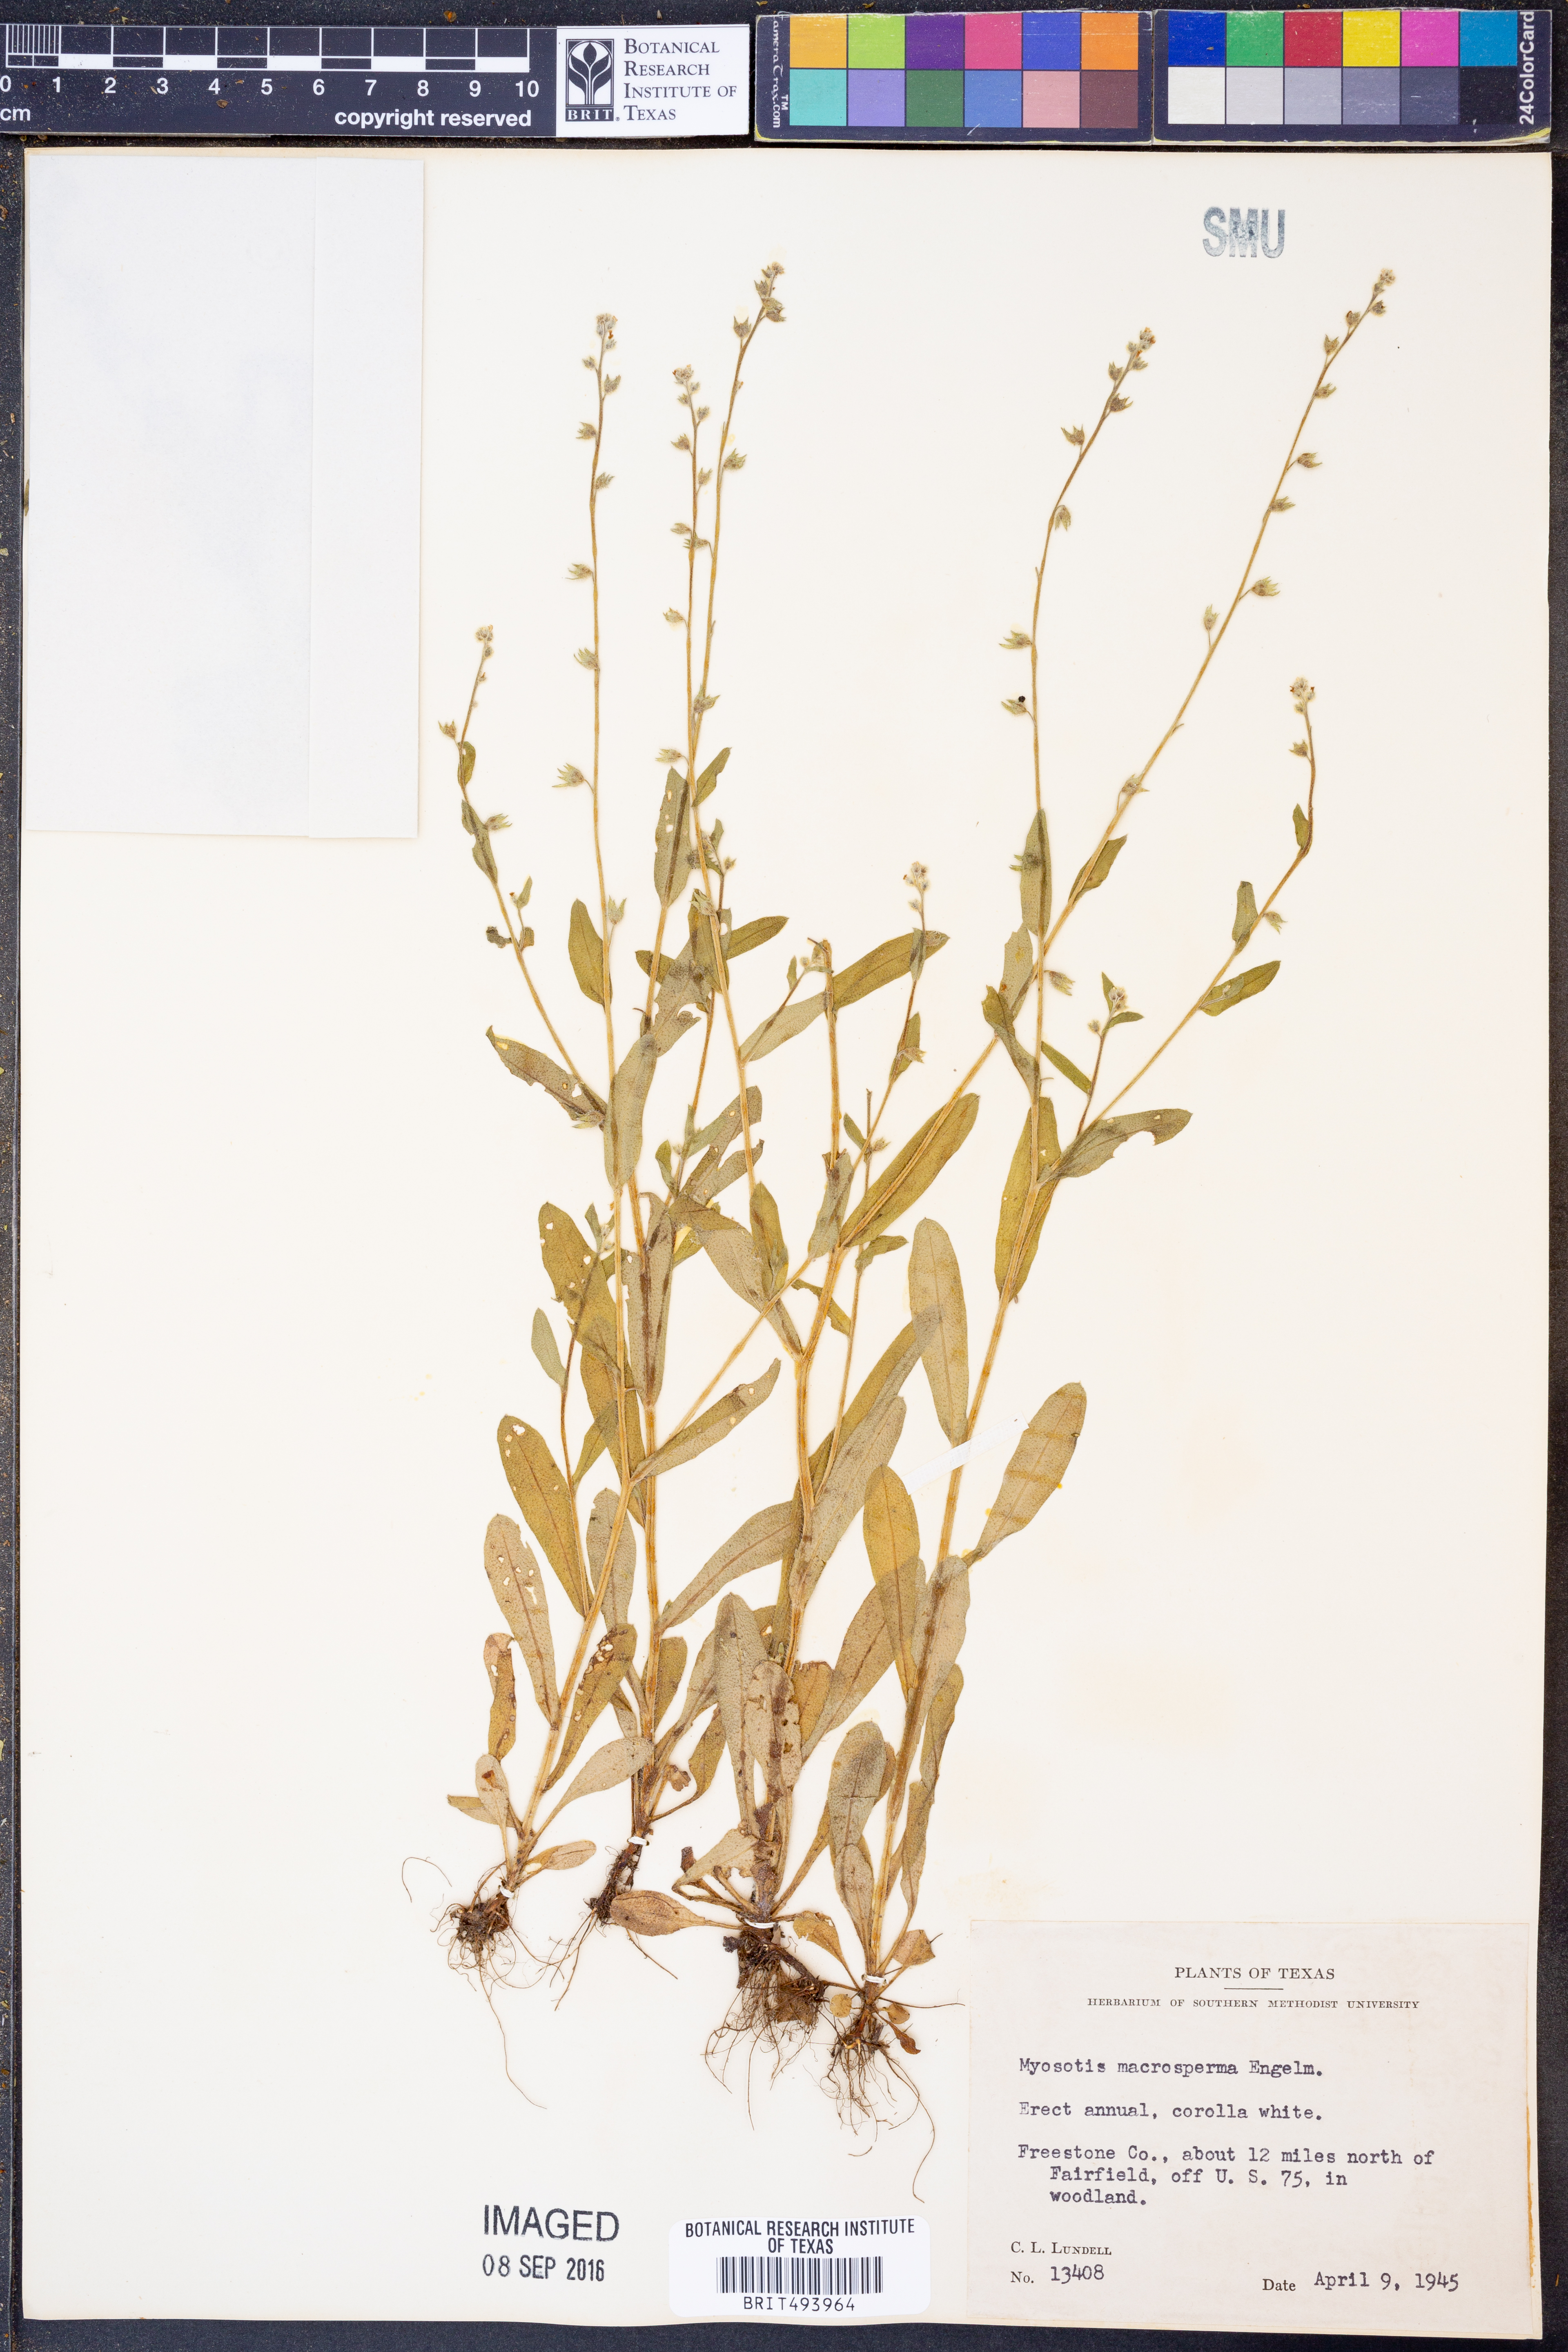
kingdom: Plantae
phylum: Tracheophyta
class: Magnoliopsida
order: Boraginales
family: Boraginaceae
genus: Myosotis
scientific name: Myosotis macrosperma
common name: Large-seed forget-me-not
